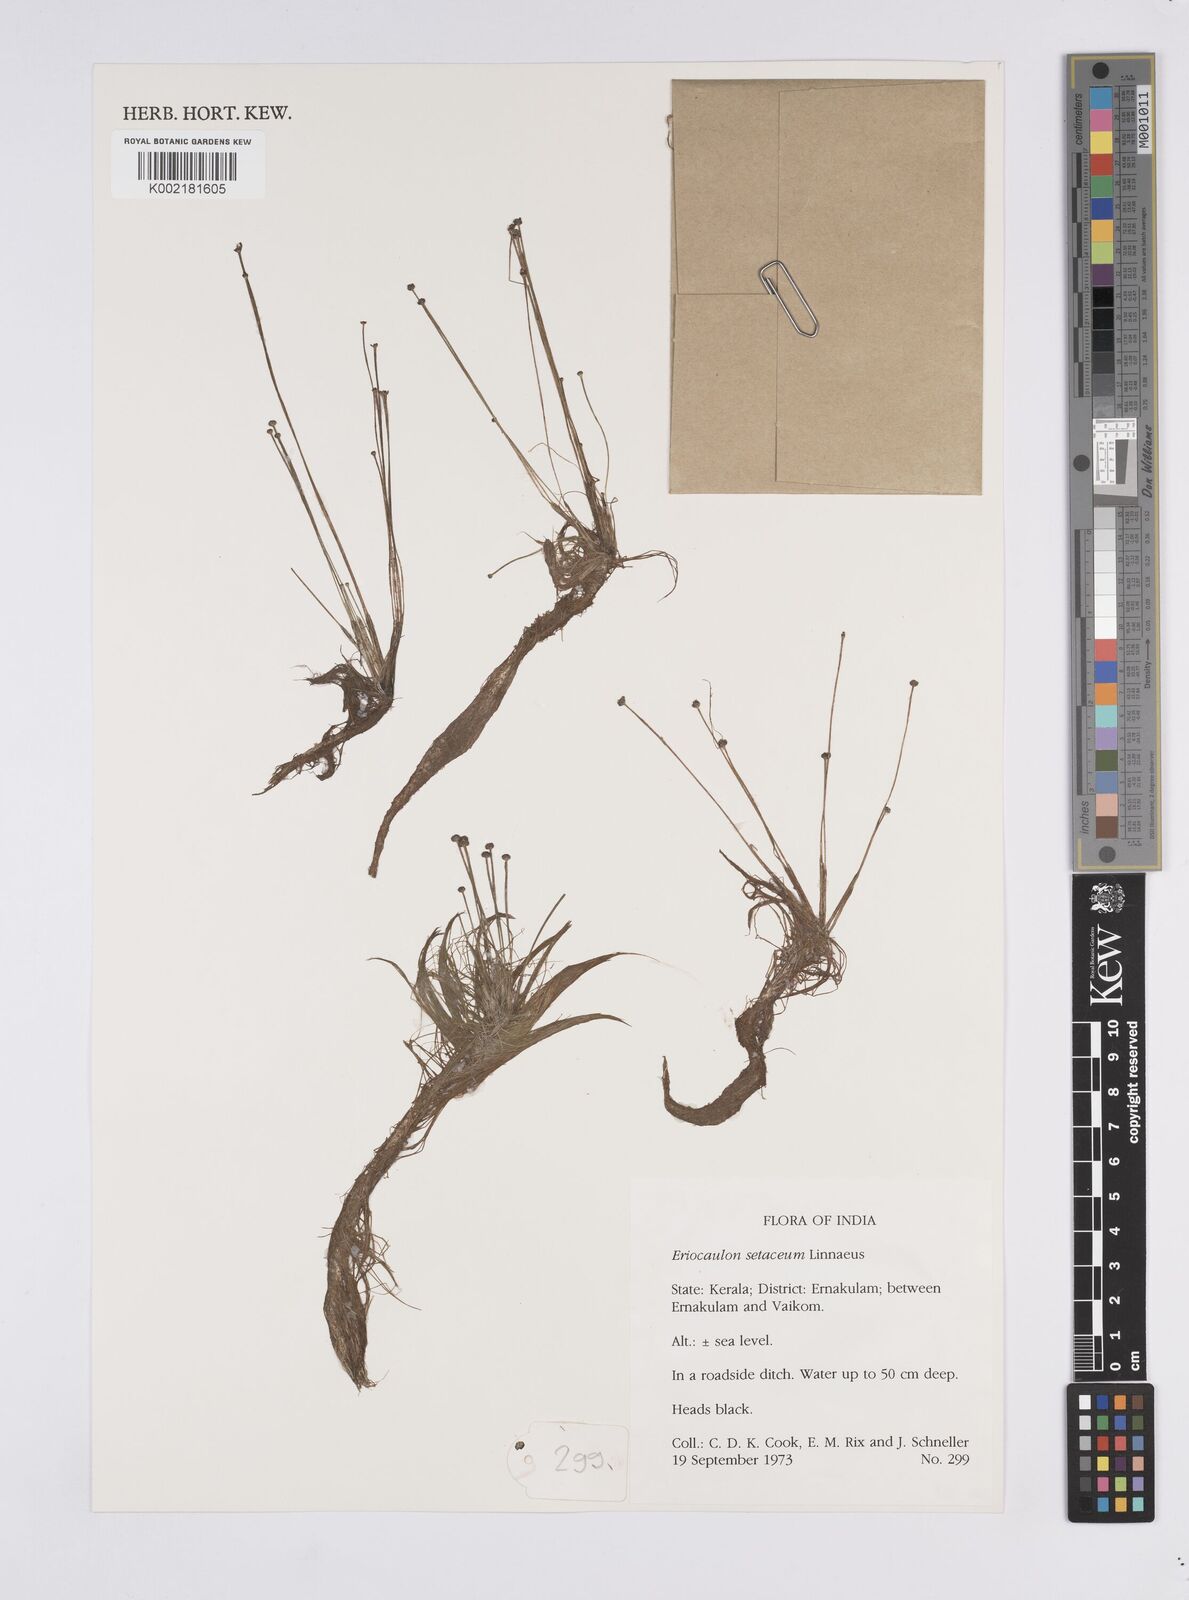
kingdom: Plantae
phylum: Tracheophyta
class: Liliopsida
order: Poales
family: Eriocaulaceae
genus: Eriocaulon
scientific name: Eriocaulon setaceum
